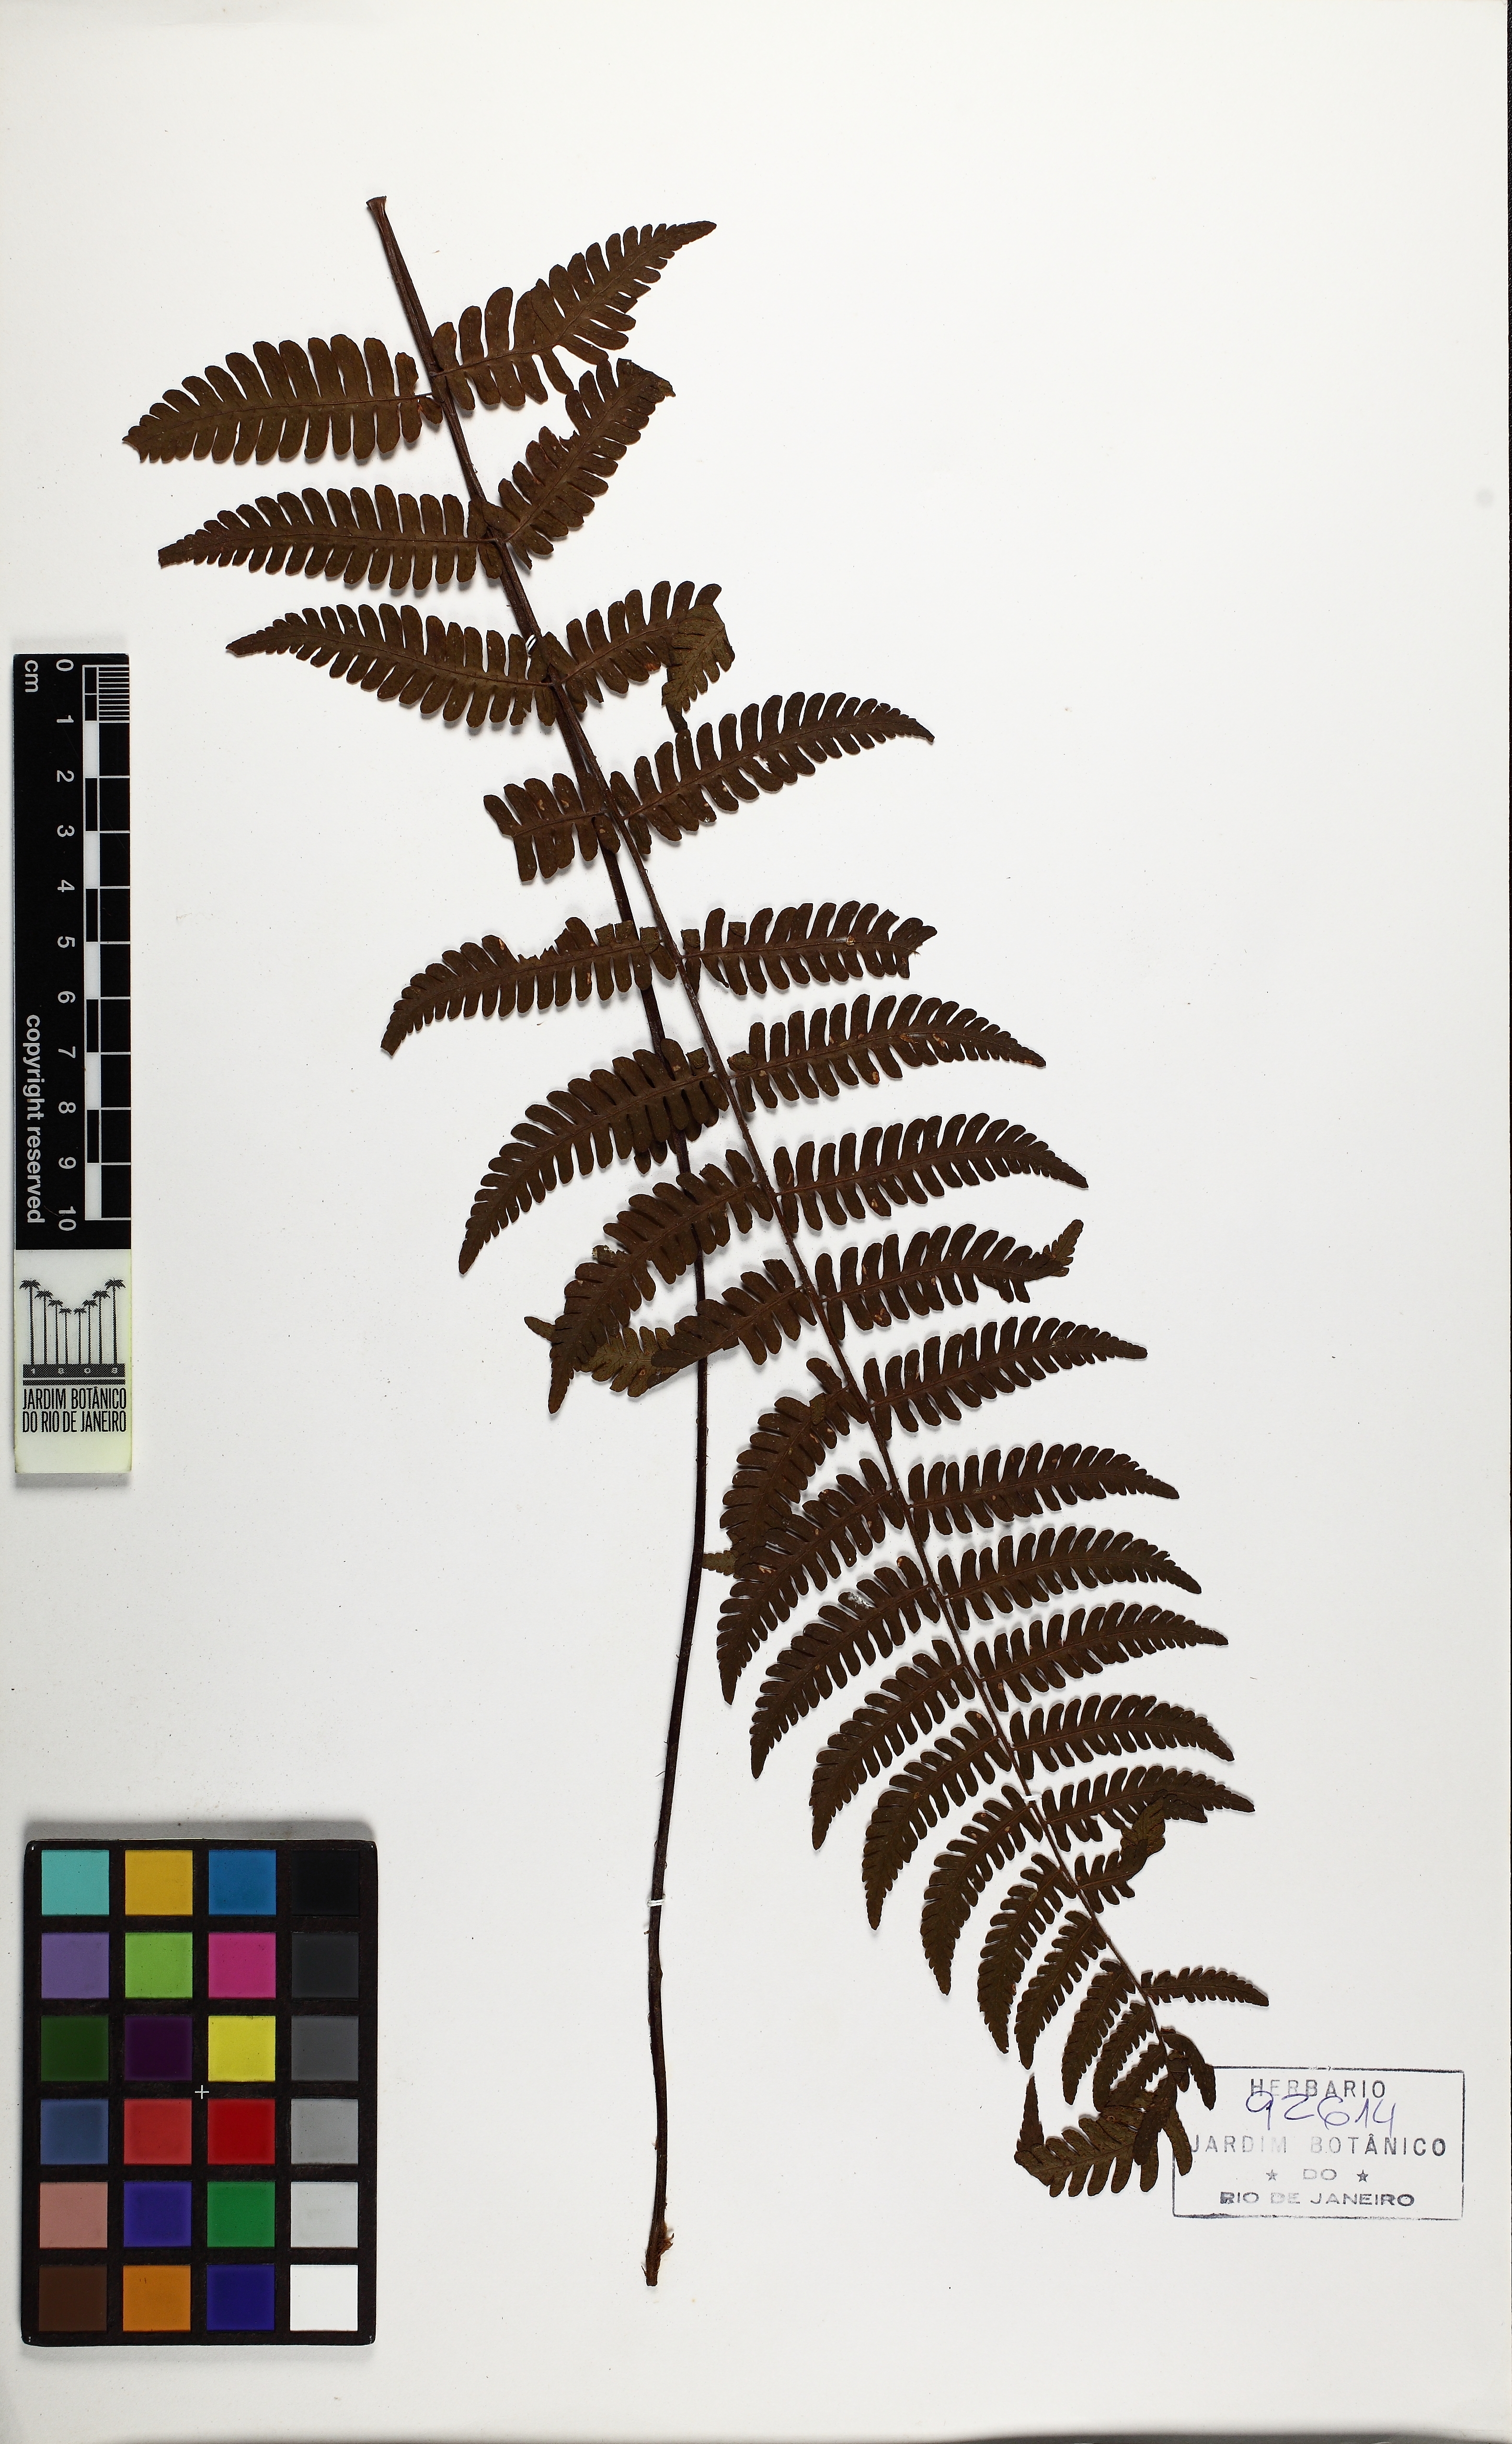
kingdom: Plantae
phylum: Tracheophyta
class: Polypodiopsida
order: Polypodiales
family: Dryopteridaceae
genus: Ctenitis
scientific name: Ctenitis bigarellae
